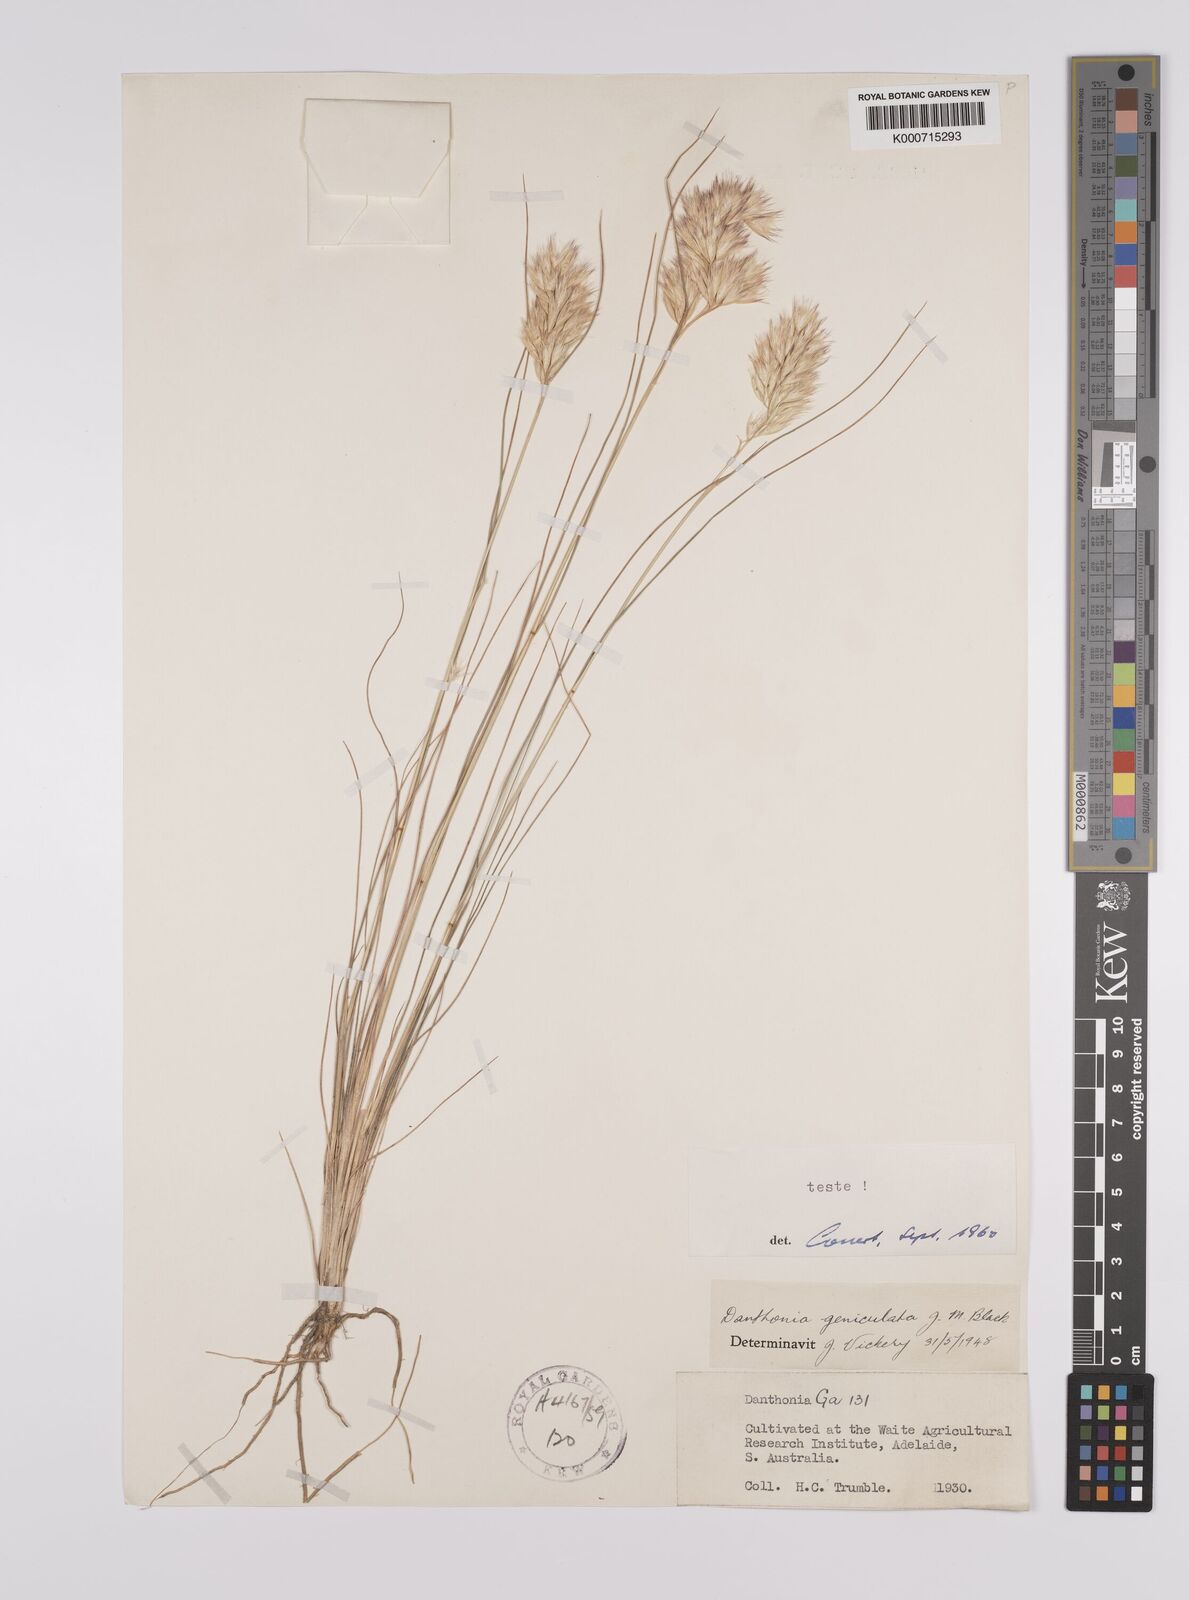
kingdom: Plantae
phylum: Tracheophyta
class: Liliopsida
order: Poales
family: Poaceae
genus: Rytidosperma
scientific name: Rytidosperma geniculatum
